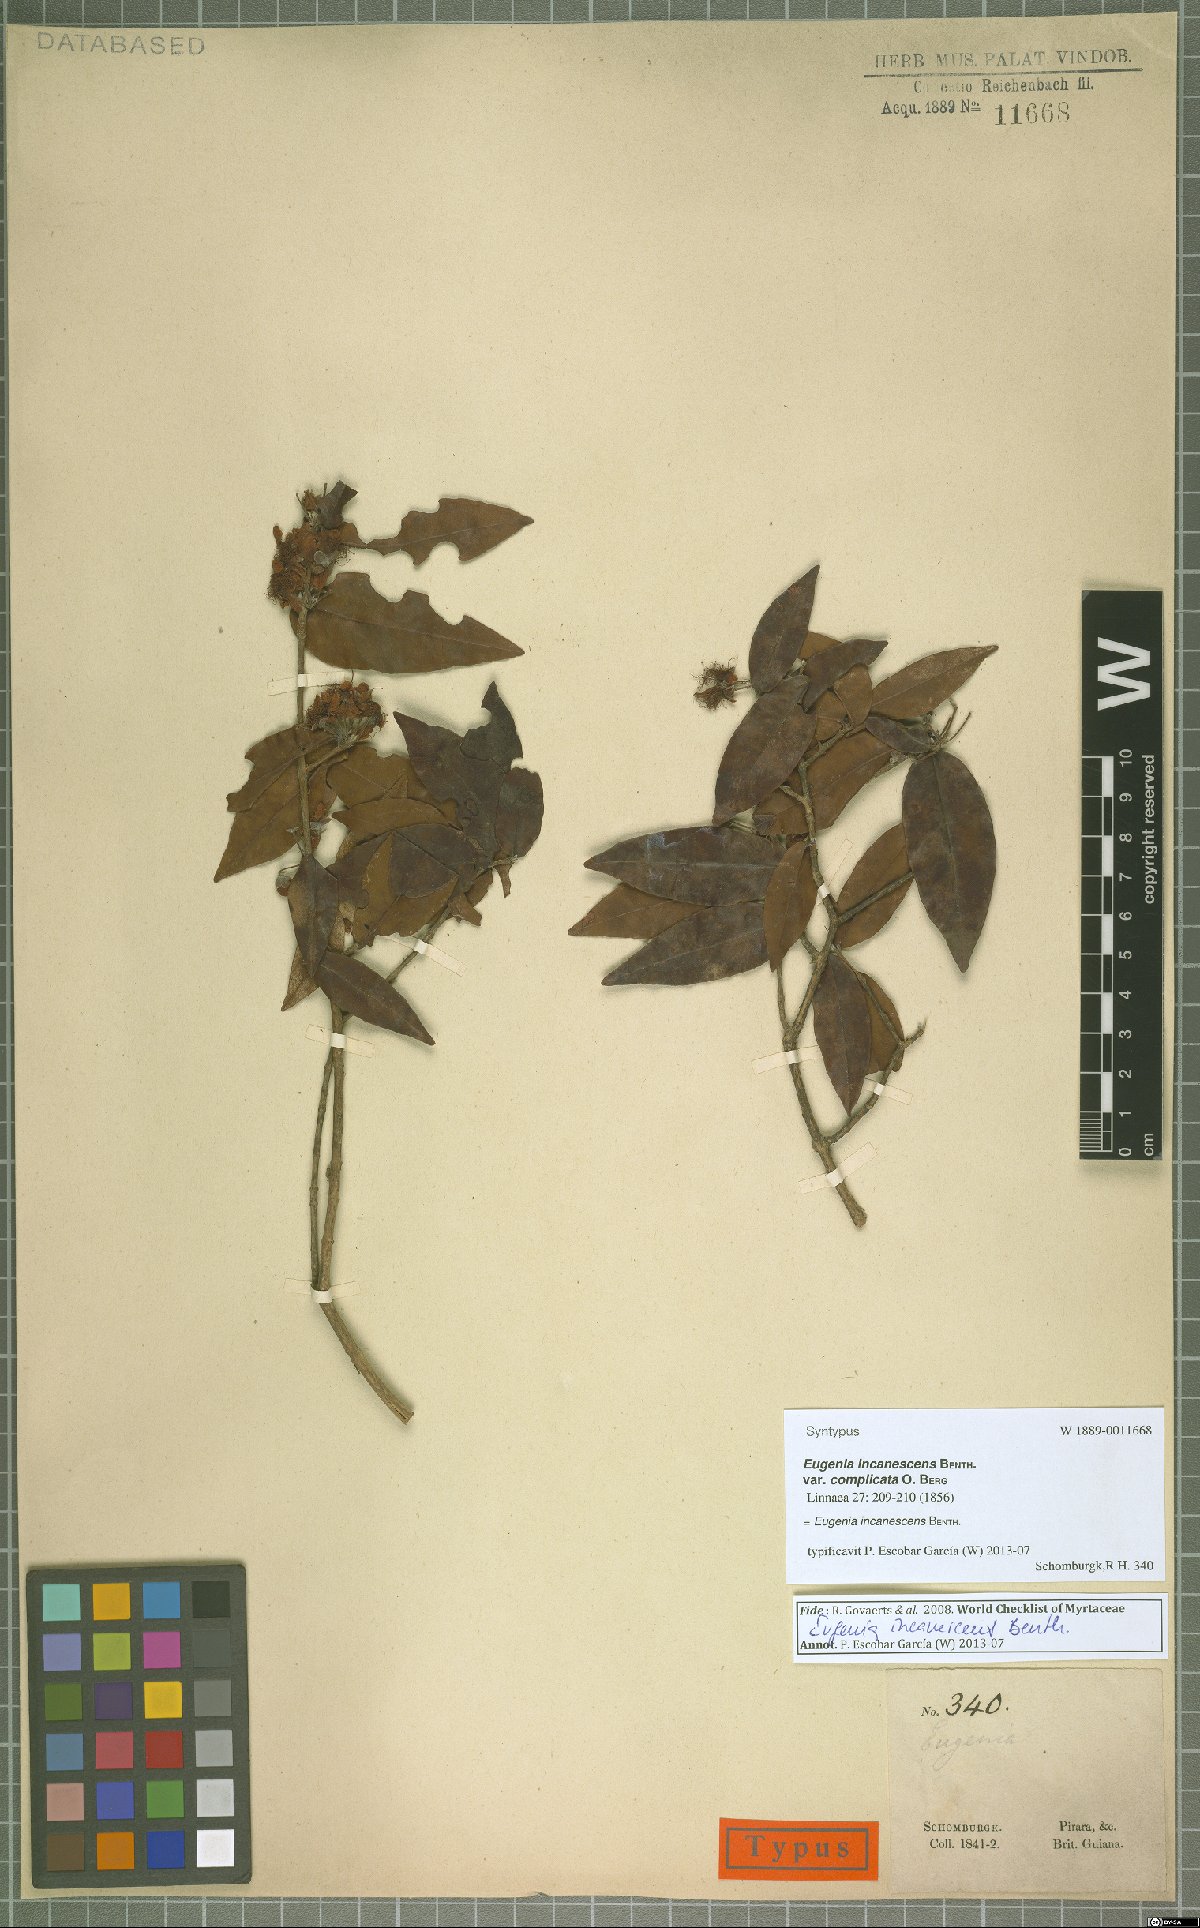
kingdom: Plantae
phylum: Tracheophyta
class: Magnoliopsida
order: Myrtales
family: Myrtaceae
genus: Eugenia
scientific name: Eugenia incanescens
